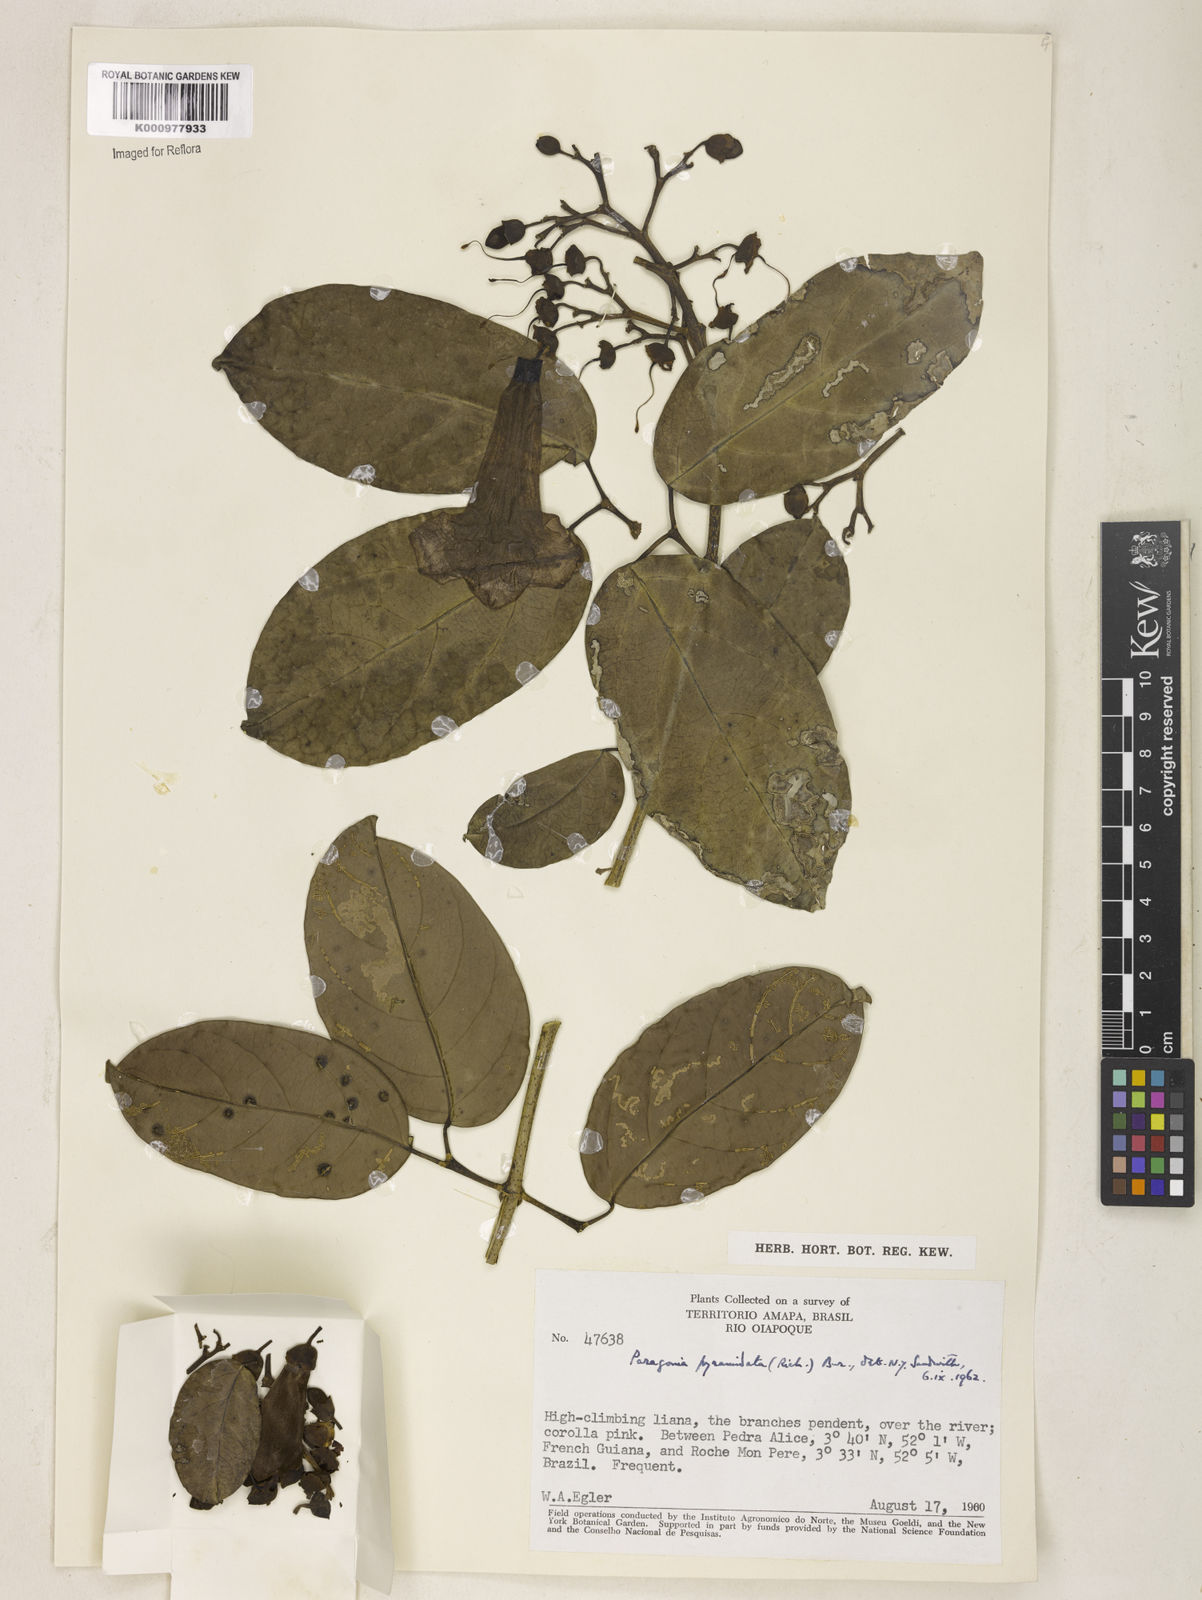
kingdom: Plantae
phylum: Tracheophyta
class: Magnoliopsida
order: Lamiales
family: Bignoniaceae
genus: Tanaecium
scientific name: Tanaecium pyramidatum
